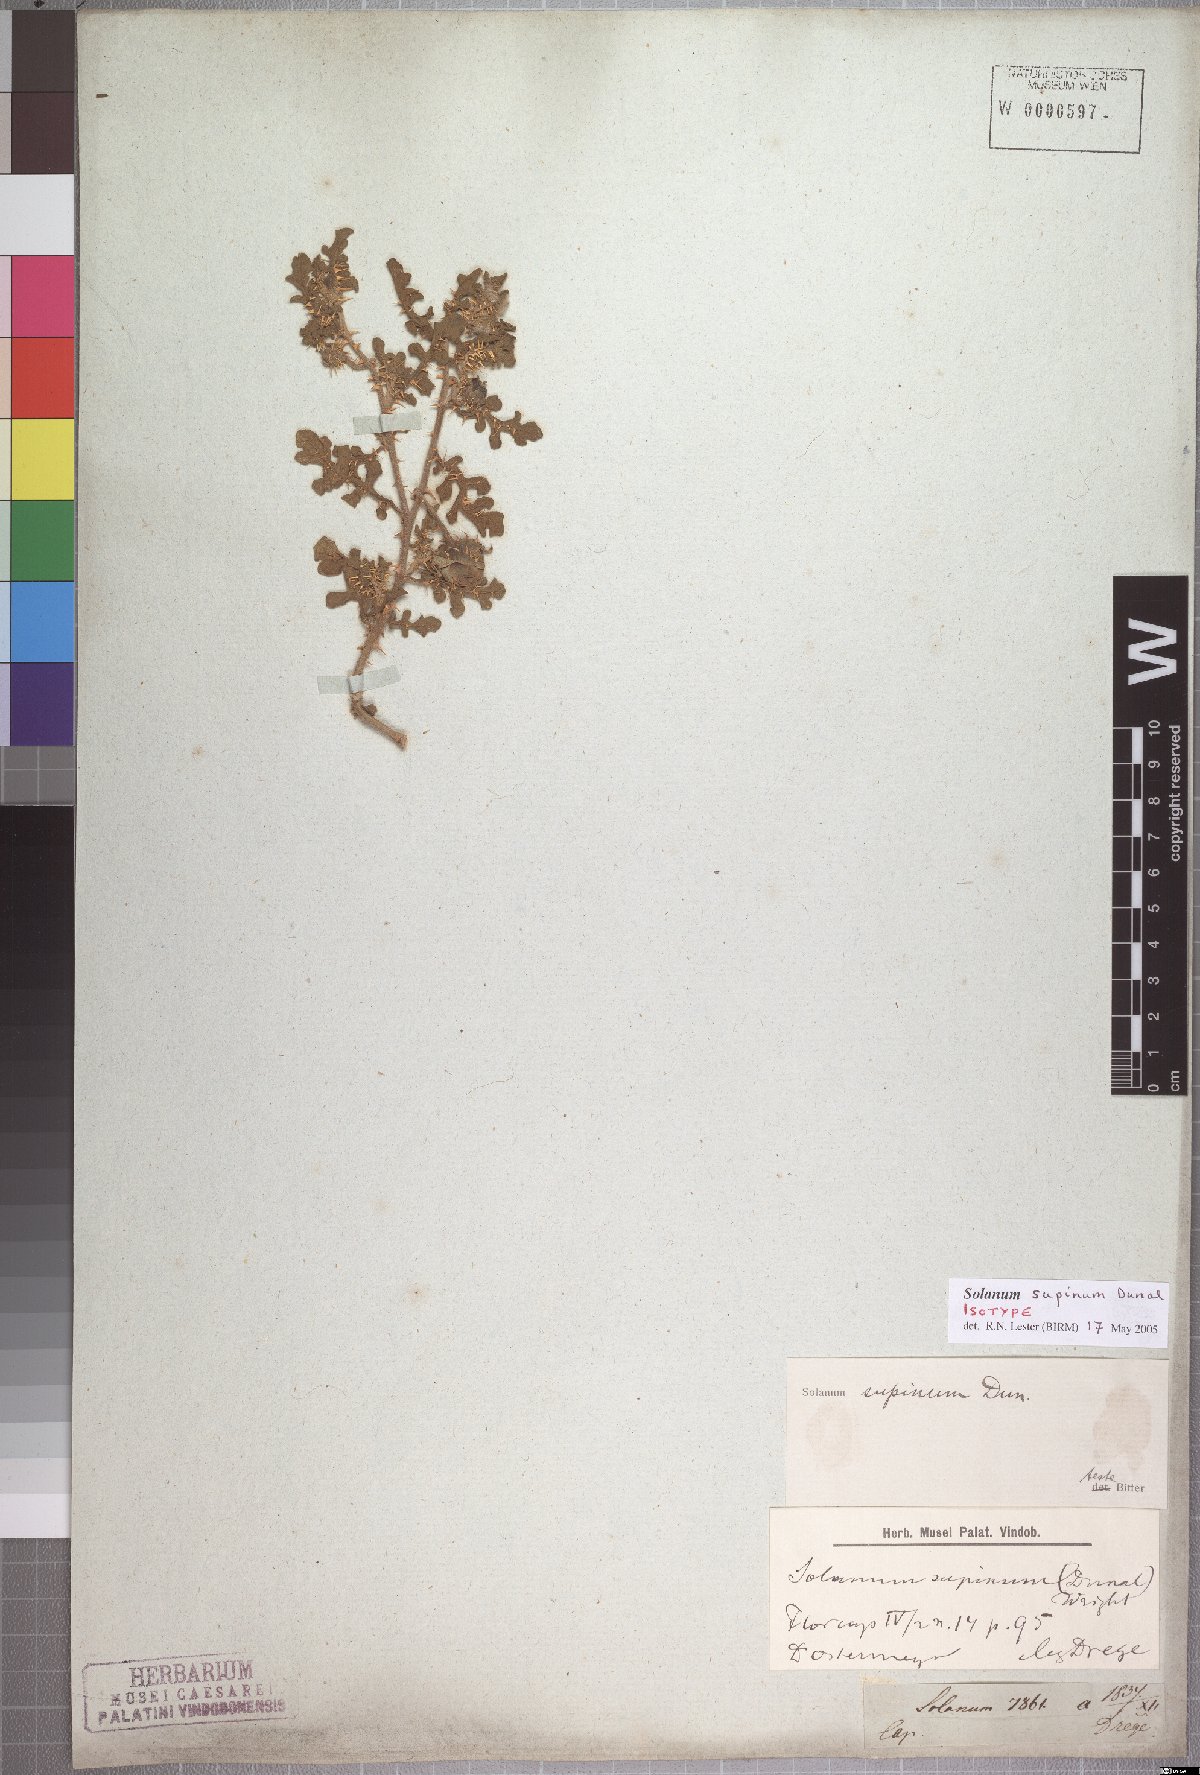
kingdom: Plantae
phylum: Tracheophyta
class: Magnoliopsida
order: Solanales
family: Solanaceae
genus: Solanum
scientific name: Solanum supinum
